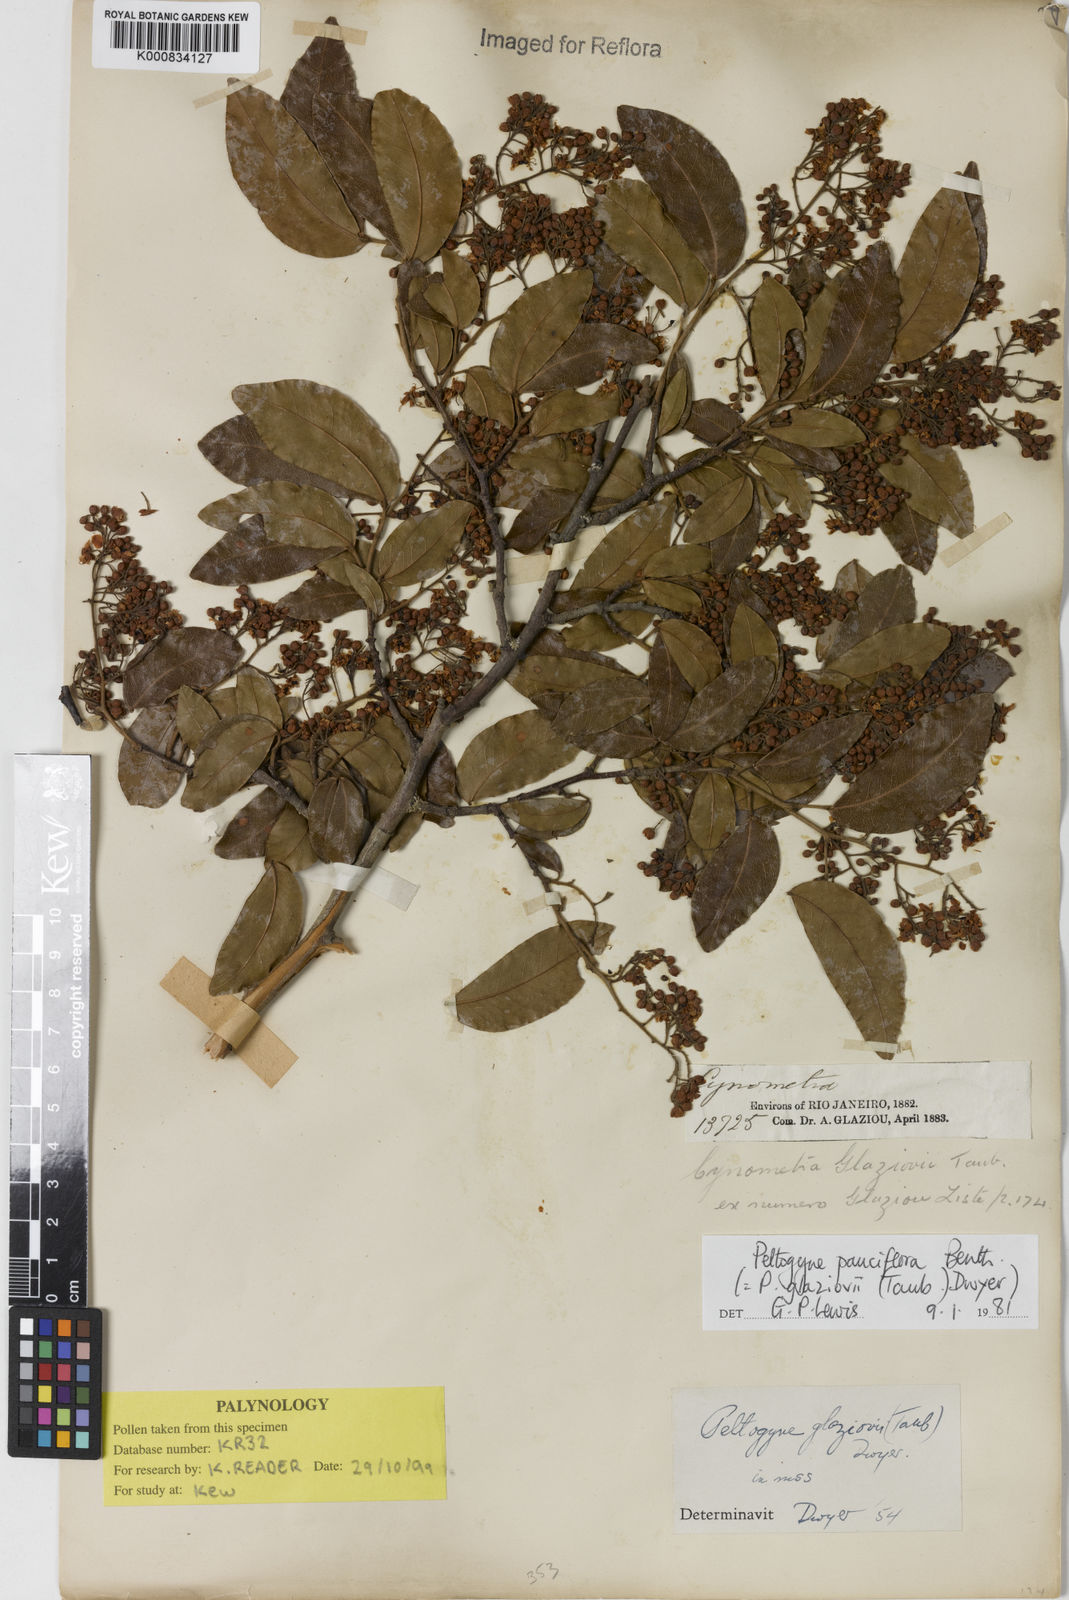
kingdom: Plantae
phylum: Tracheophyta
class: Magnoliopsida
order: Fabales
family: Fabaceae
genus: Peltogyne
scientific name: Peltogyne pauciflora
